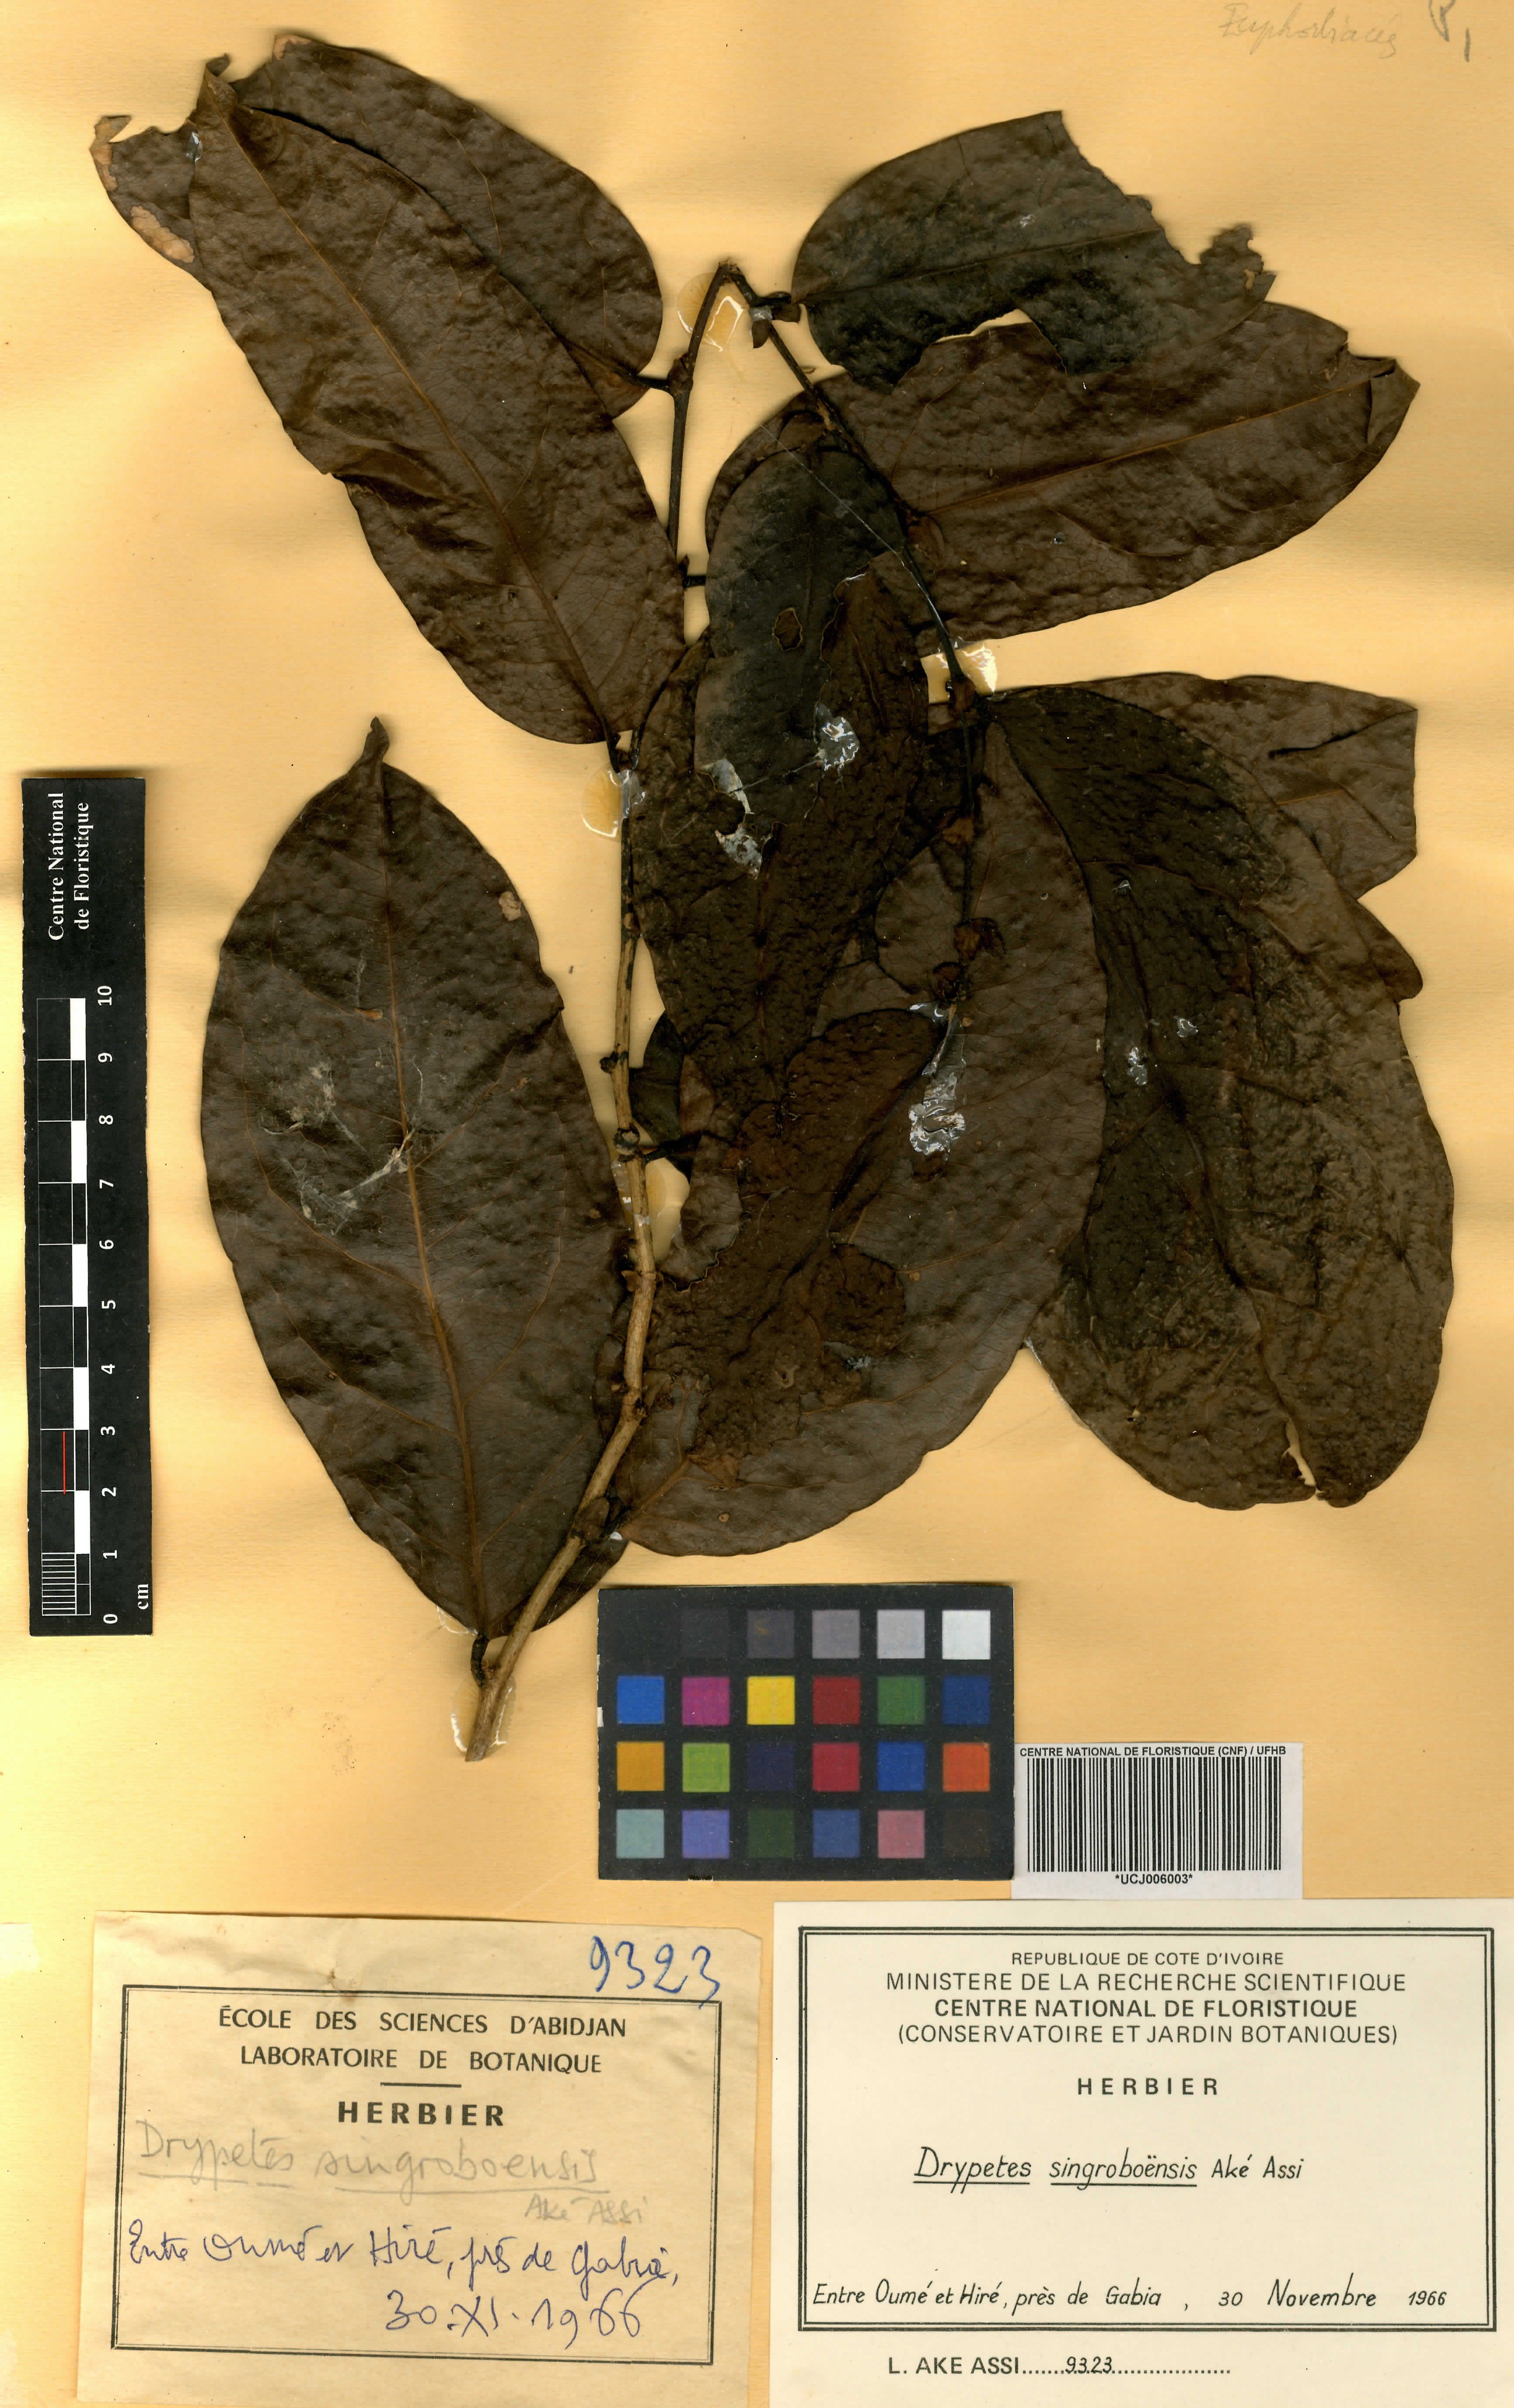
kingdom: Plantae
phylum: Tracheophyta
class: Magnoliopsida
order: Malpighiales
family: Putranjivaceae
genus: Drypetes
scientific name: Drypetes singroboensis
